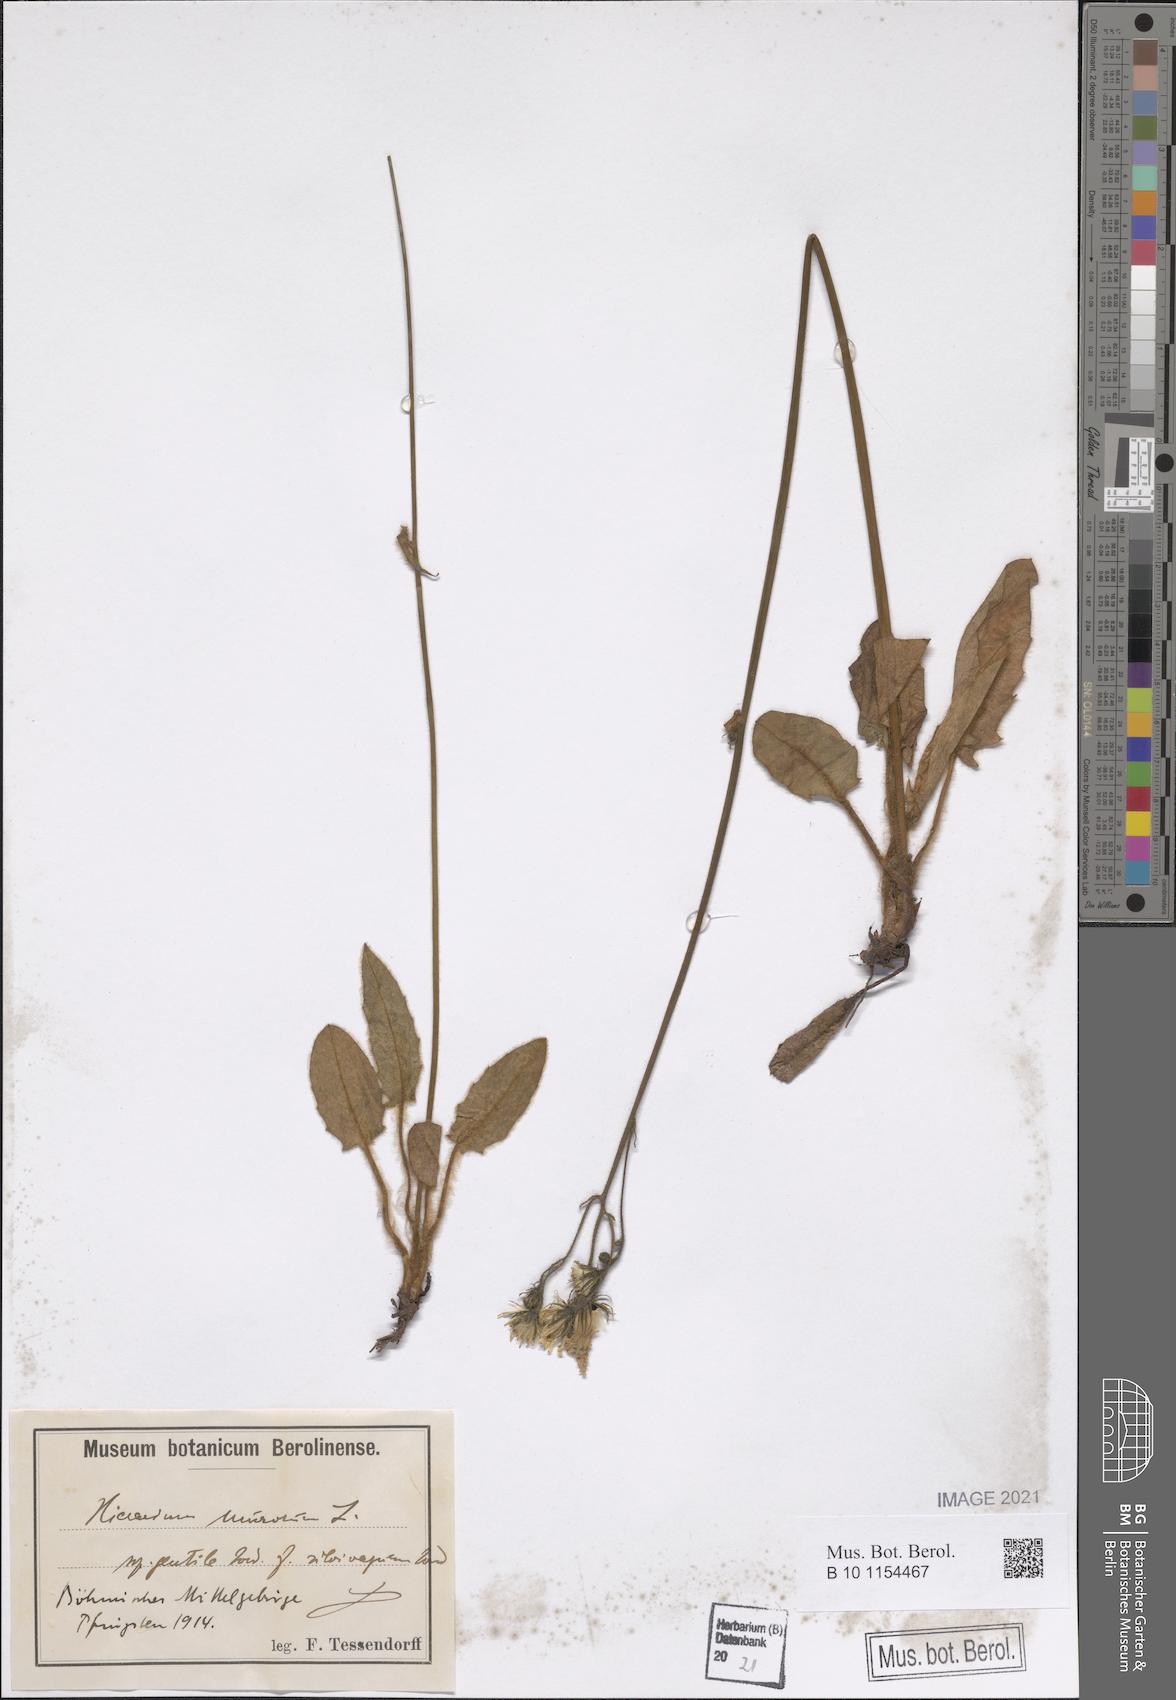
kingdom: Plantae
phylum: Tracheophyta
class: Magnoliopsida
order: Asterales
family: Asteraceae
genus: Hieracium
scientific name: Hieracium murorum
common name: Wall hawkweed
